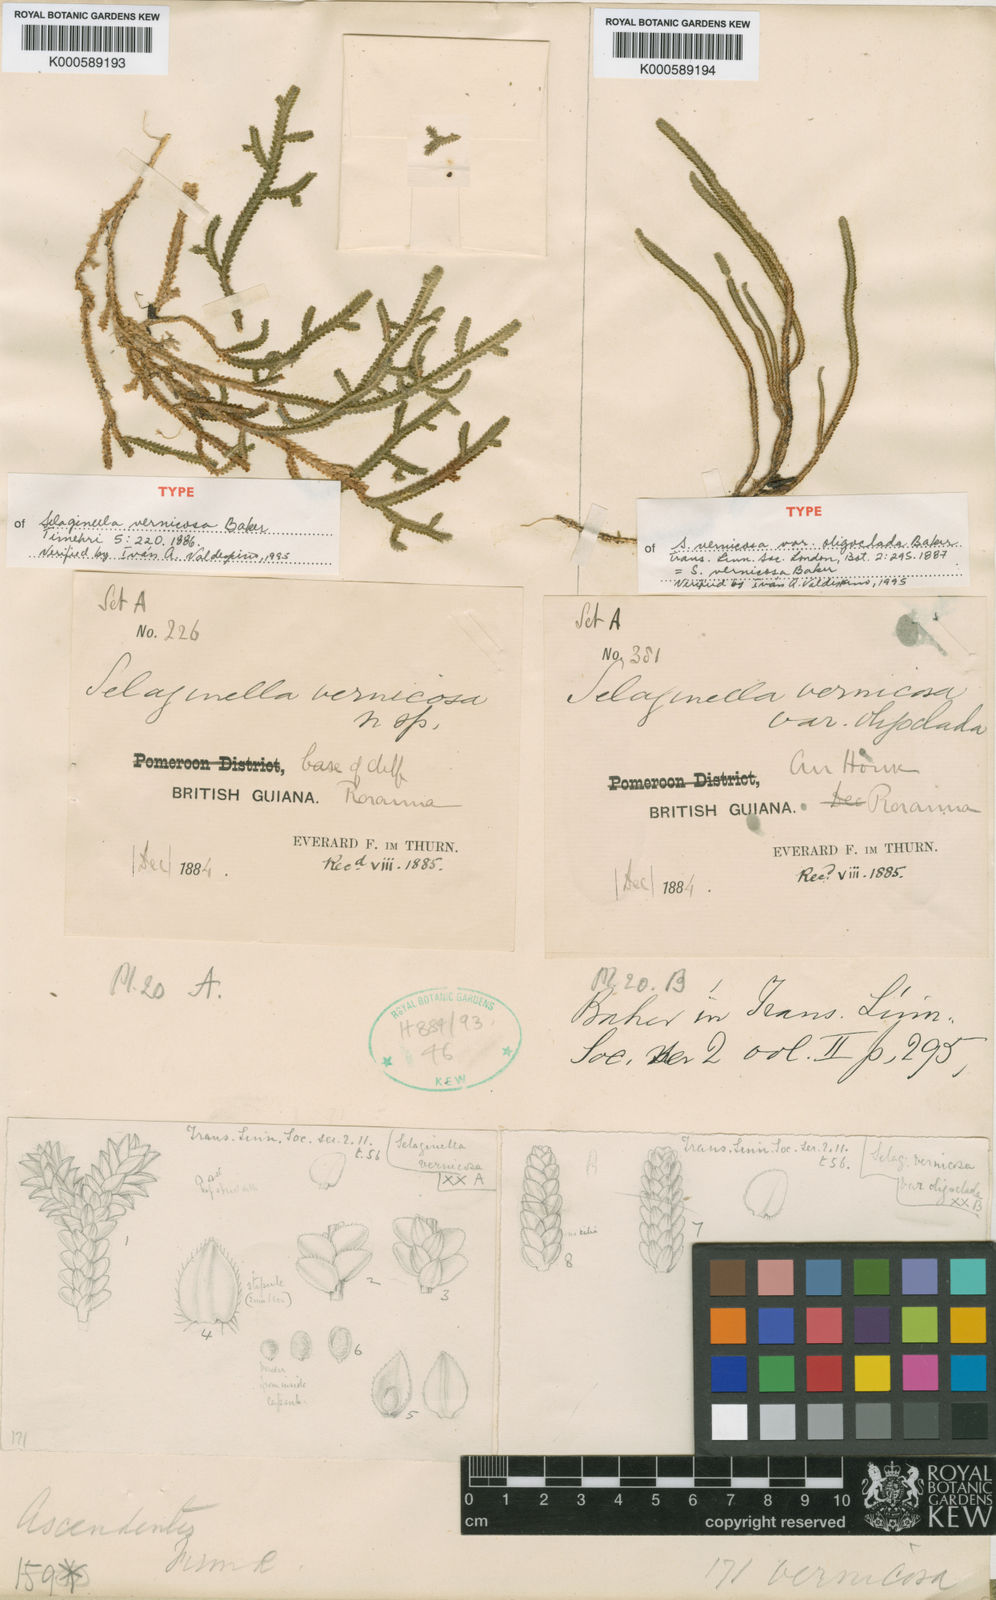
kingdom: Plantae
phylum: Tracheophyta
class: Lycopodiopsida
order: Selaginellales
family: Selaginellaceae
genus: Selaginella
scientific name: Selaginella vernicosa
